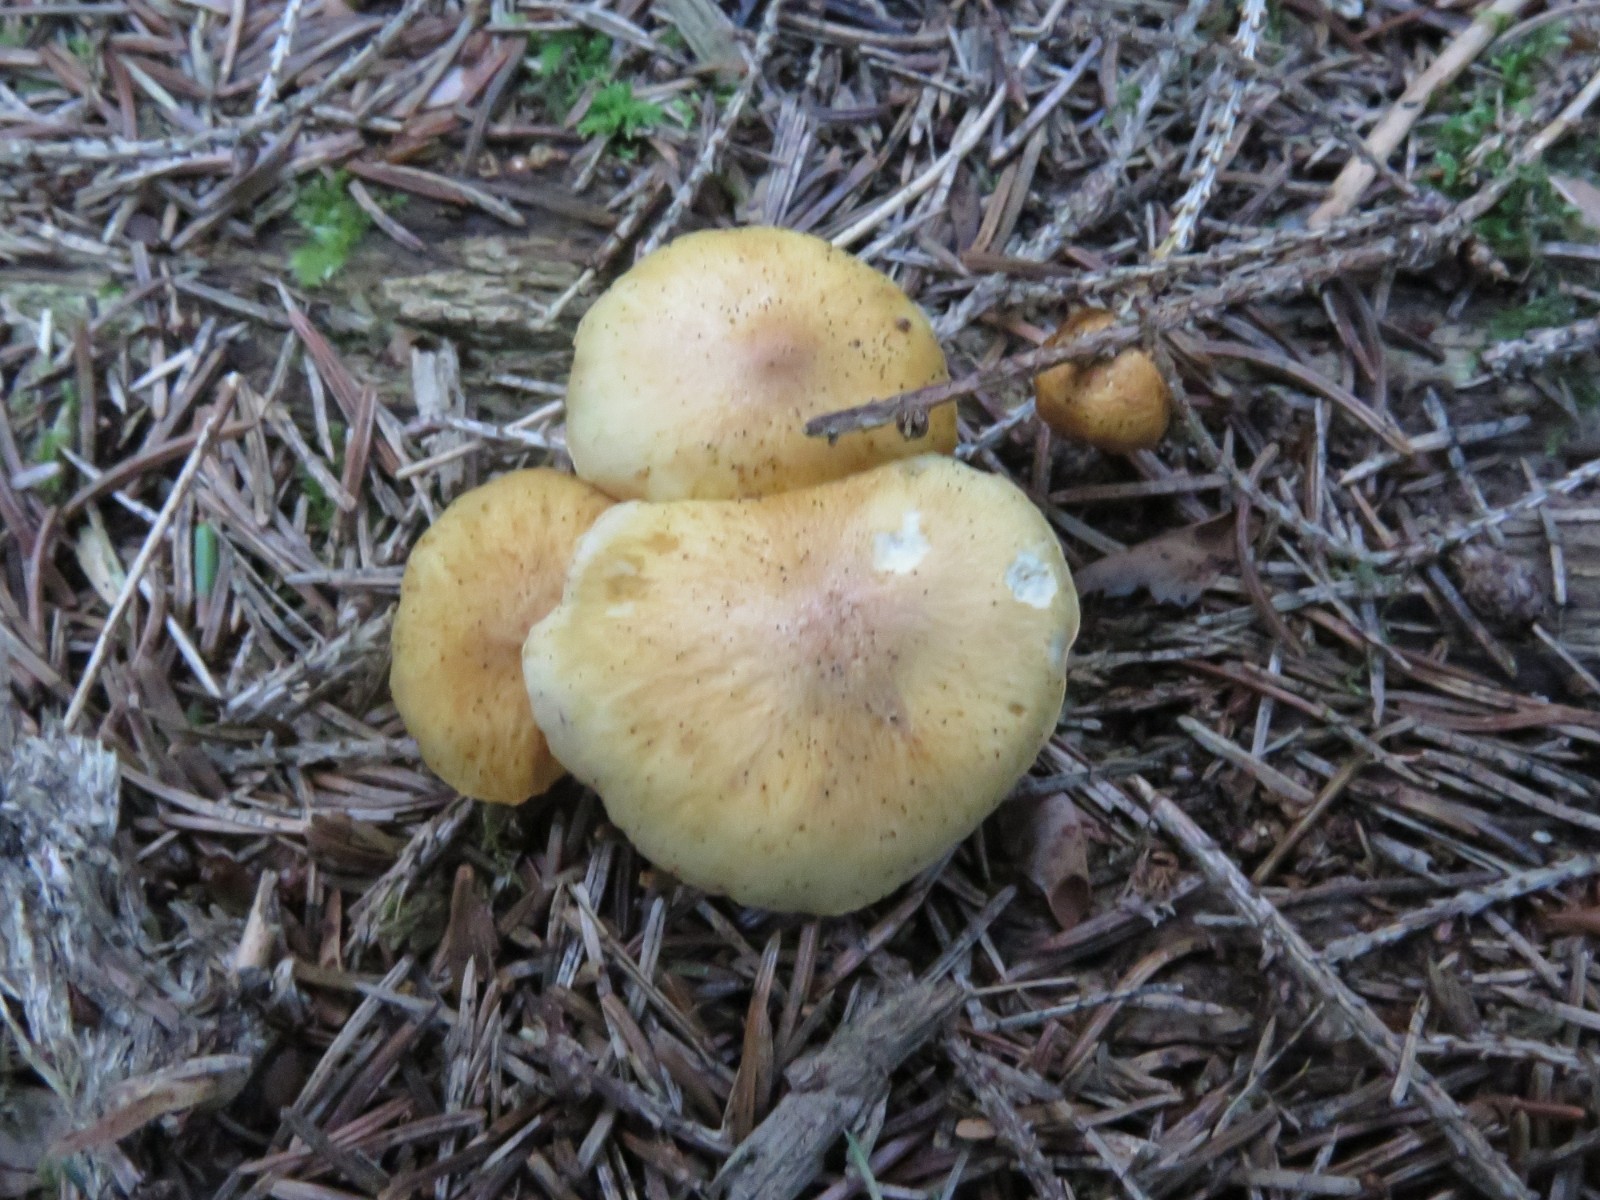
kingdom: Fungi
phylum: Basidiomycota
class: Agaricomycetes
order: Agaricales
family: Hymenogastraceae
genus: Gymnopilus
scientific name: Gymnopilus penetrans
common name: plettet flammehat
